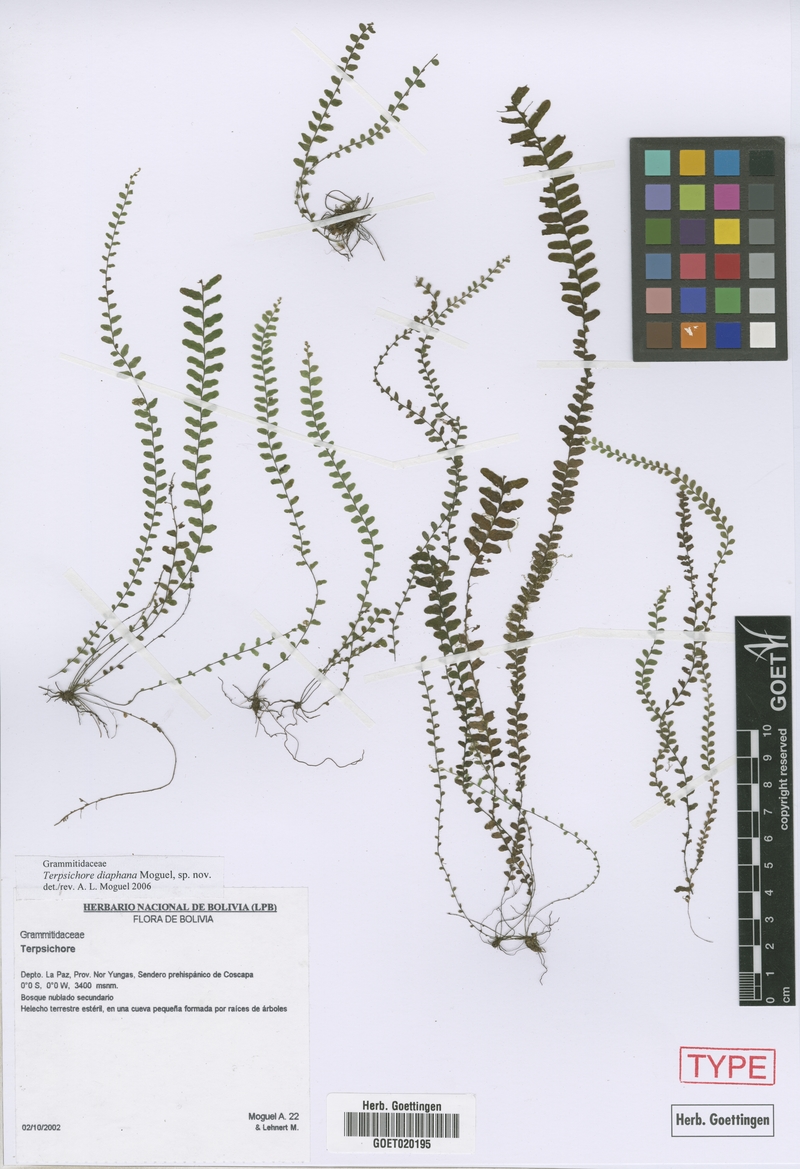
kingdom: Plantae
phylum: Tracheophyta
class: Polypodiopsida
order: Polypodiales
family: Polypodiaceae
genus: Alansmia
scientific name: Alansmia diaphana
